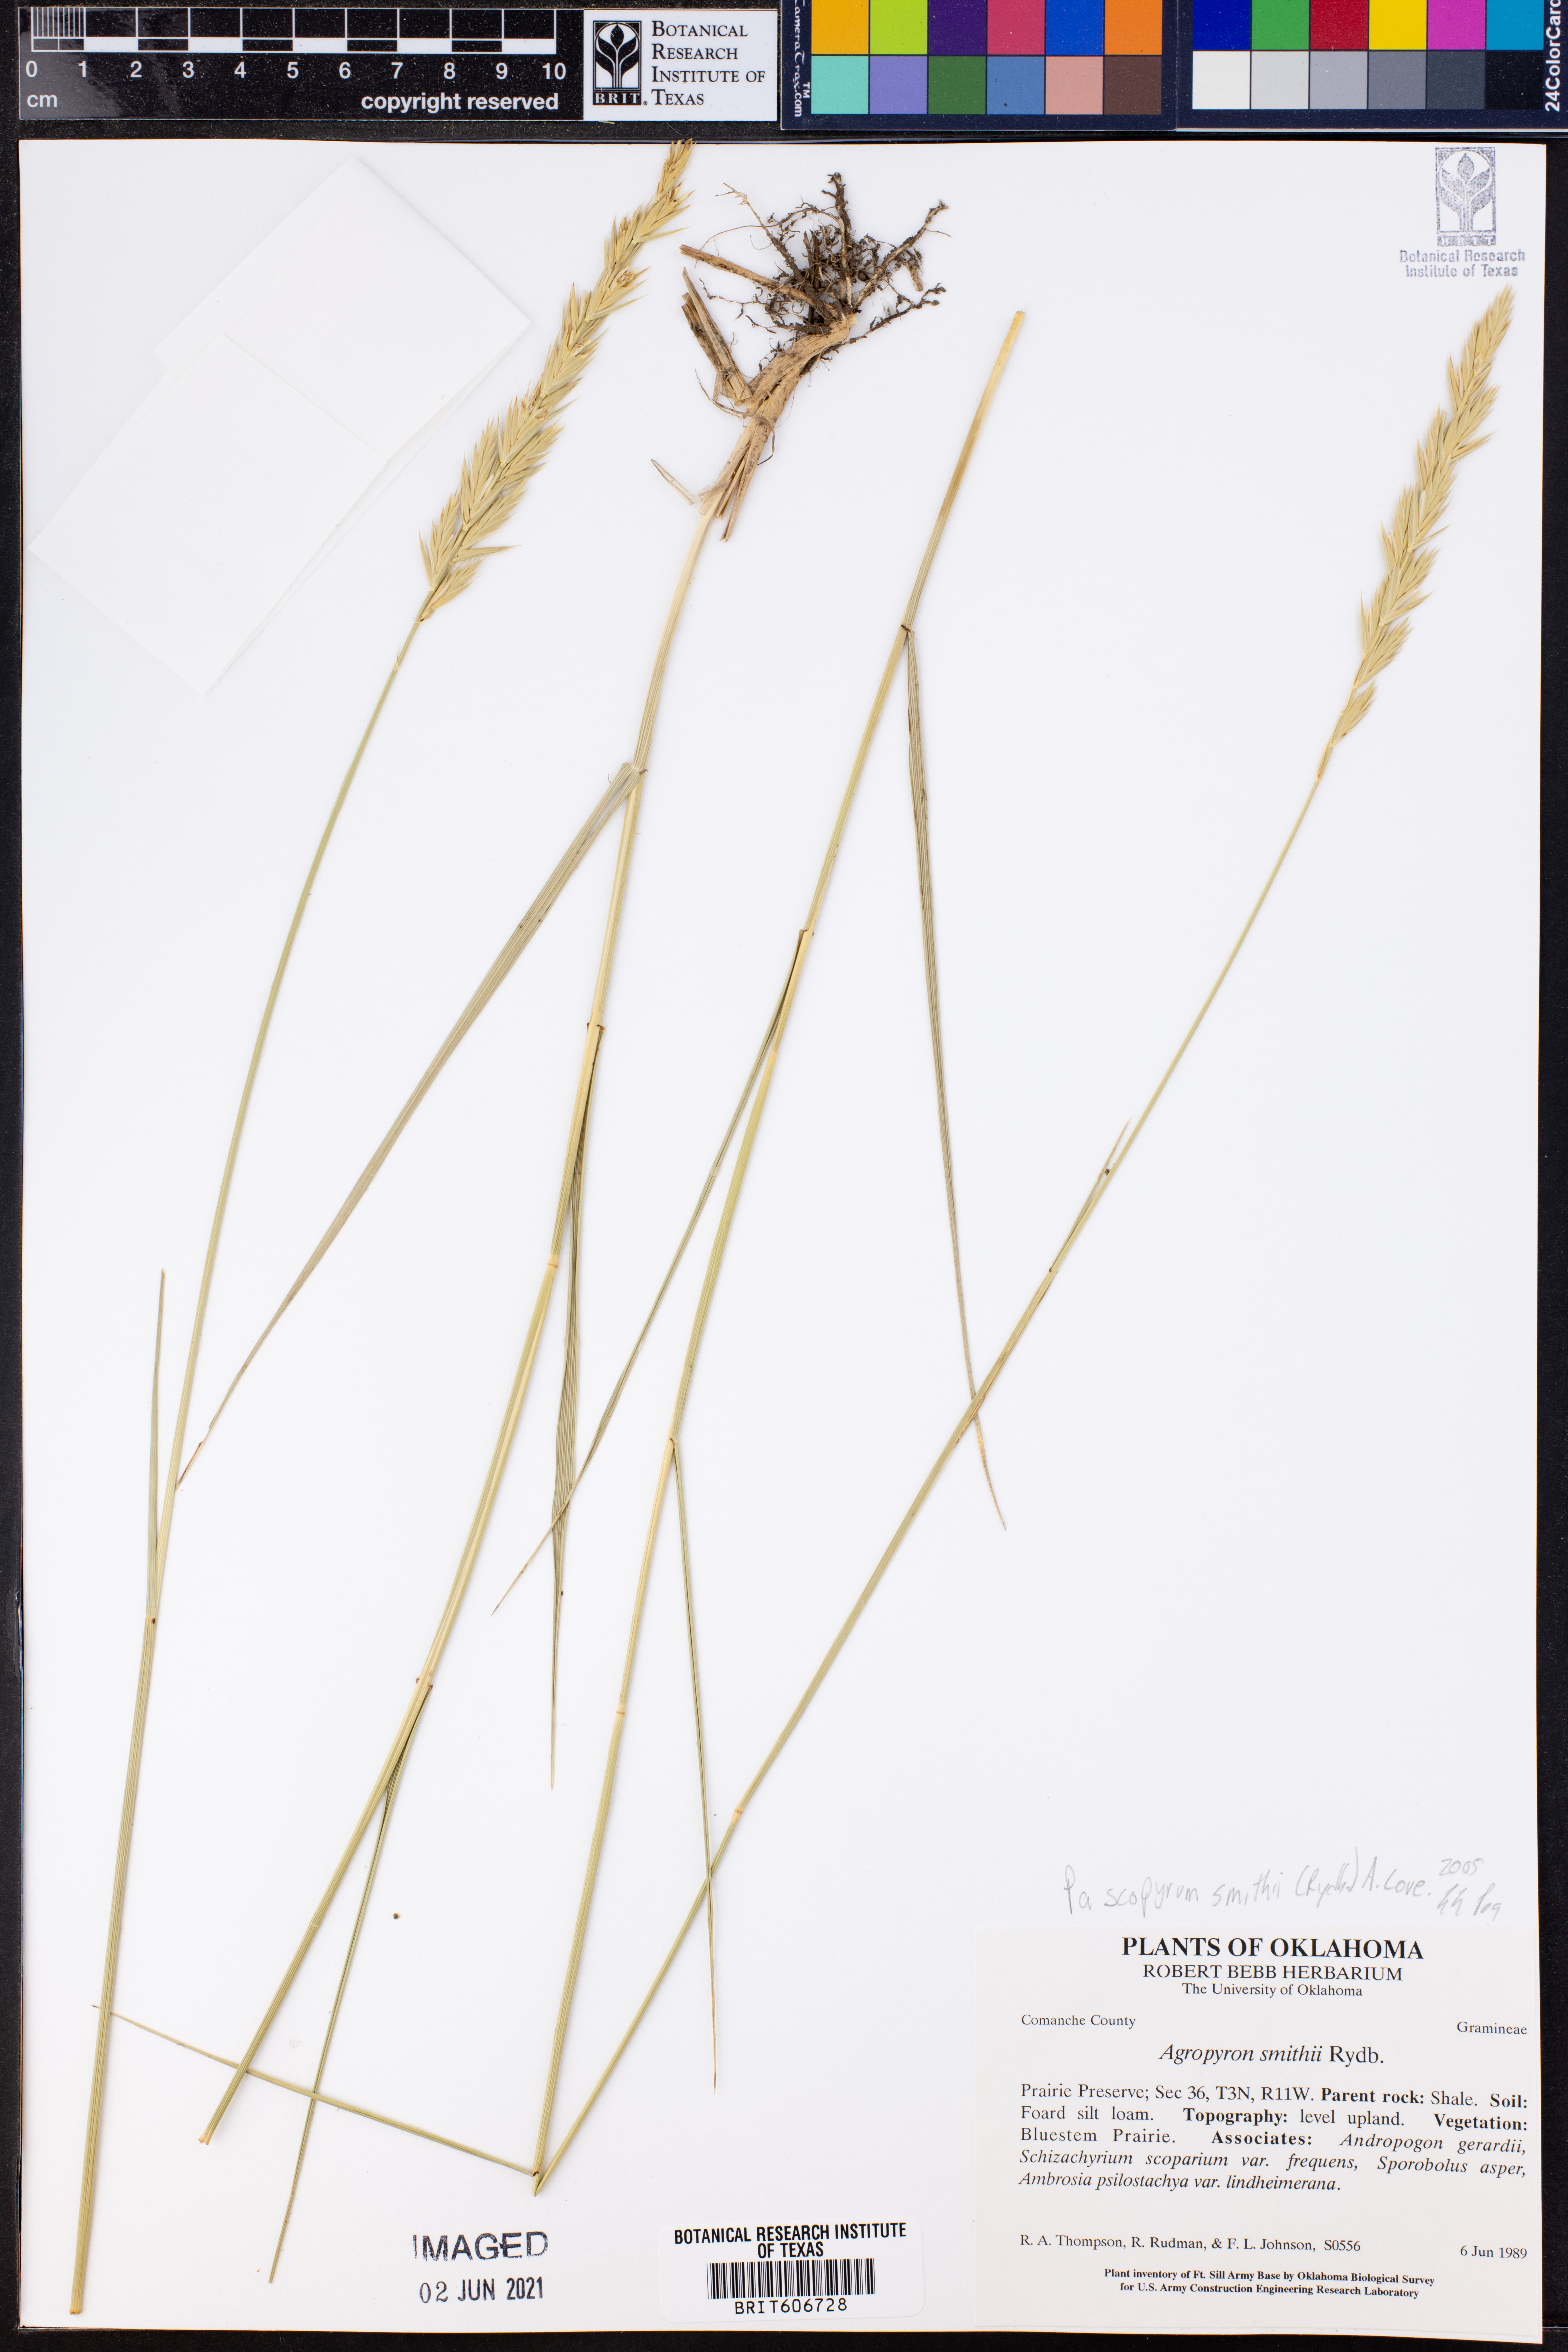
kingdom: Plantae
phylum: Tracheophyta
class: Liliopsida
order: Poales
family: Poaceae
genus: Elymus
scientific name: Elymus smithii
